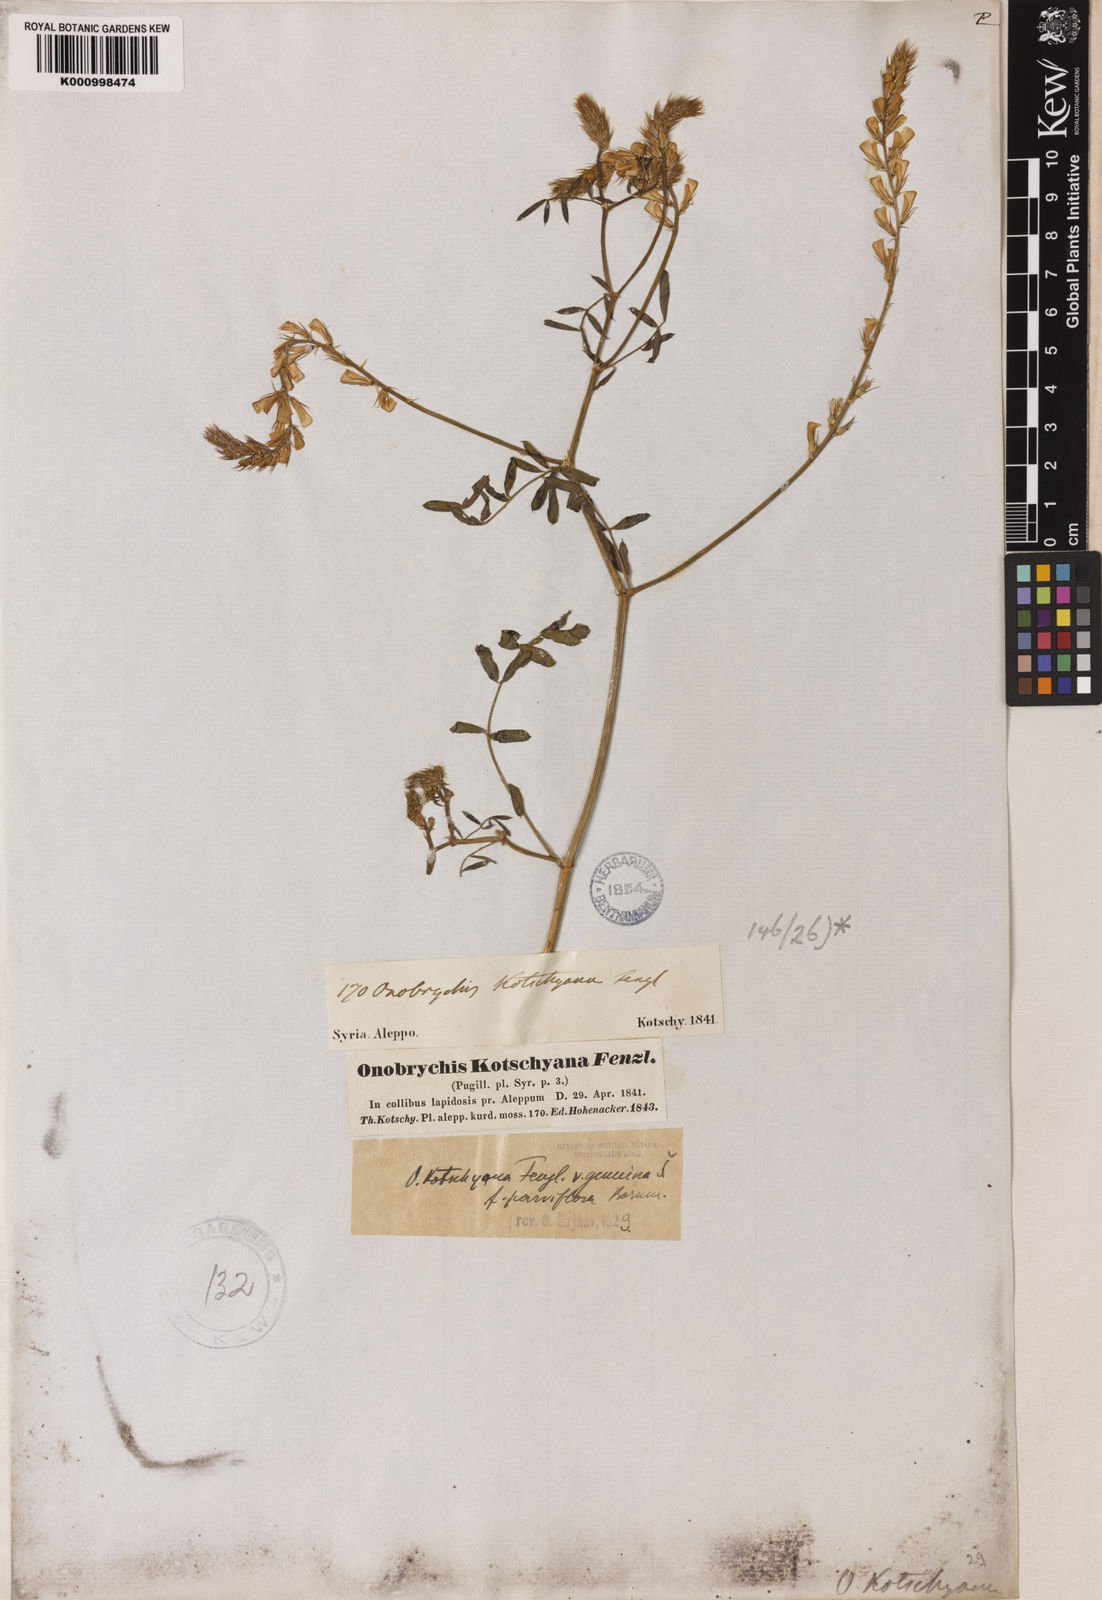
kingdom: Plantae
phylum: Tracheophyta
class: Magnoliopsida
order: Fabales
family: Fabaceae
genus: Onobrychis
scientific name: Onobrychis kotschyana
